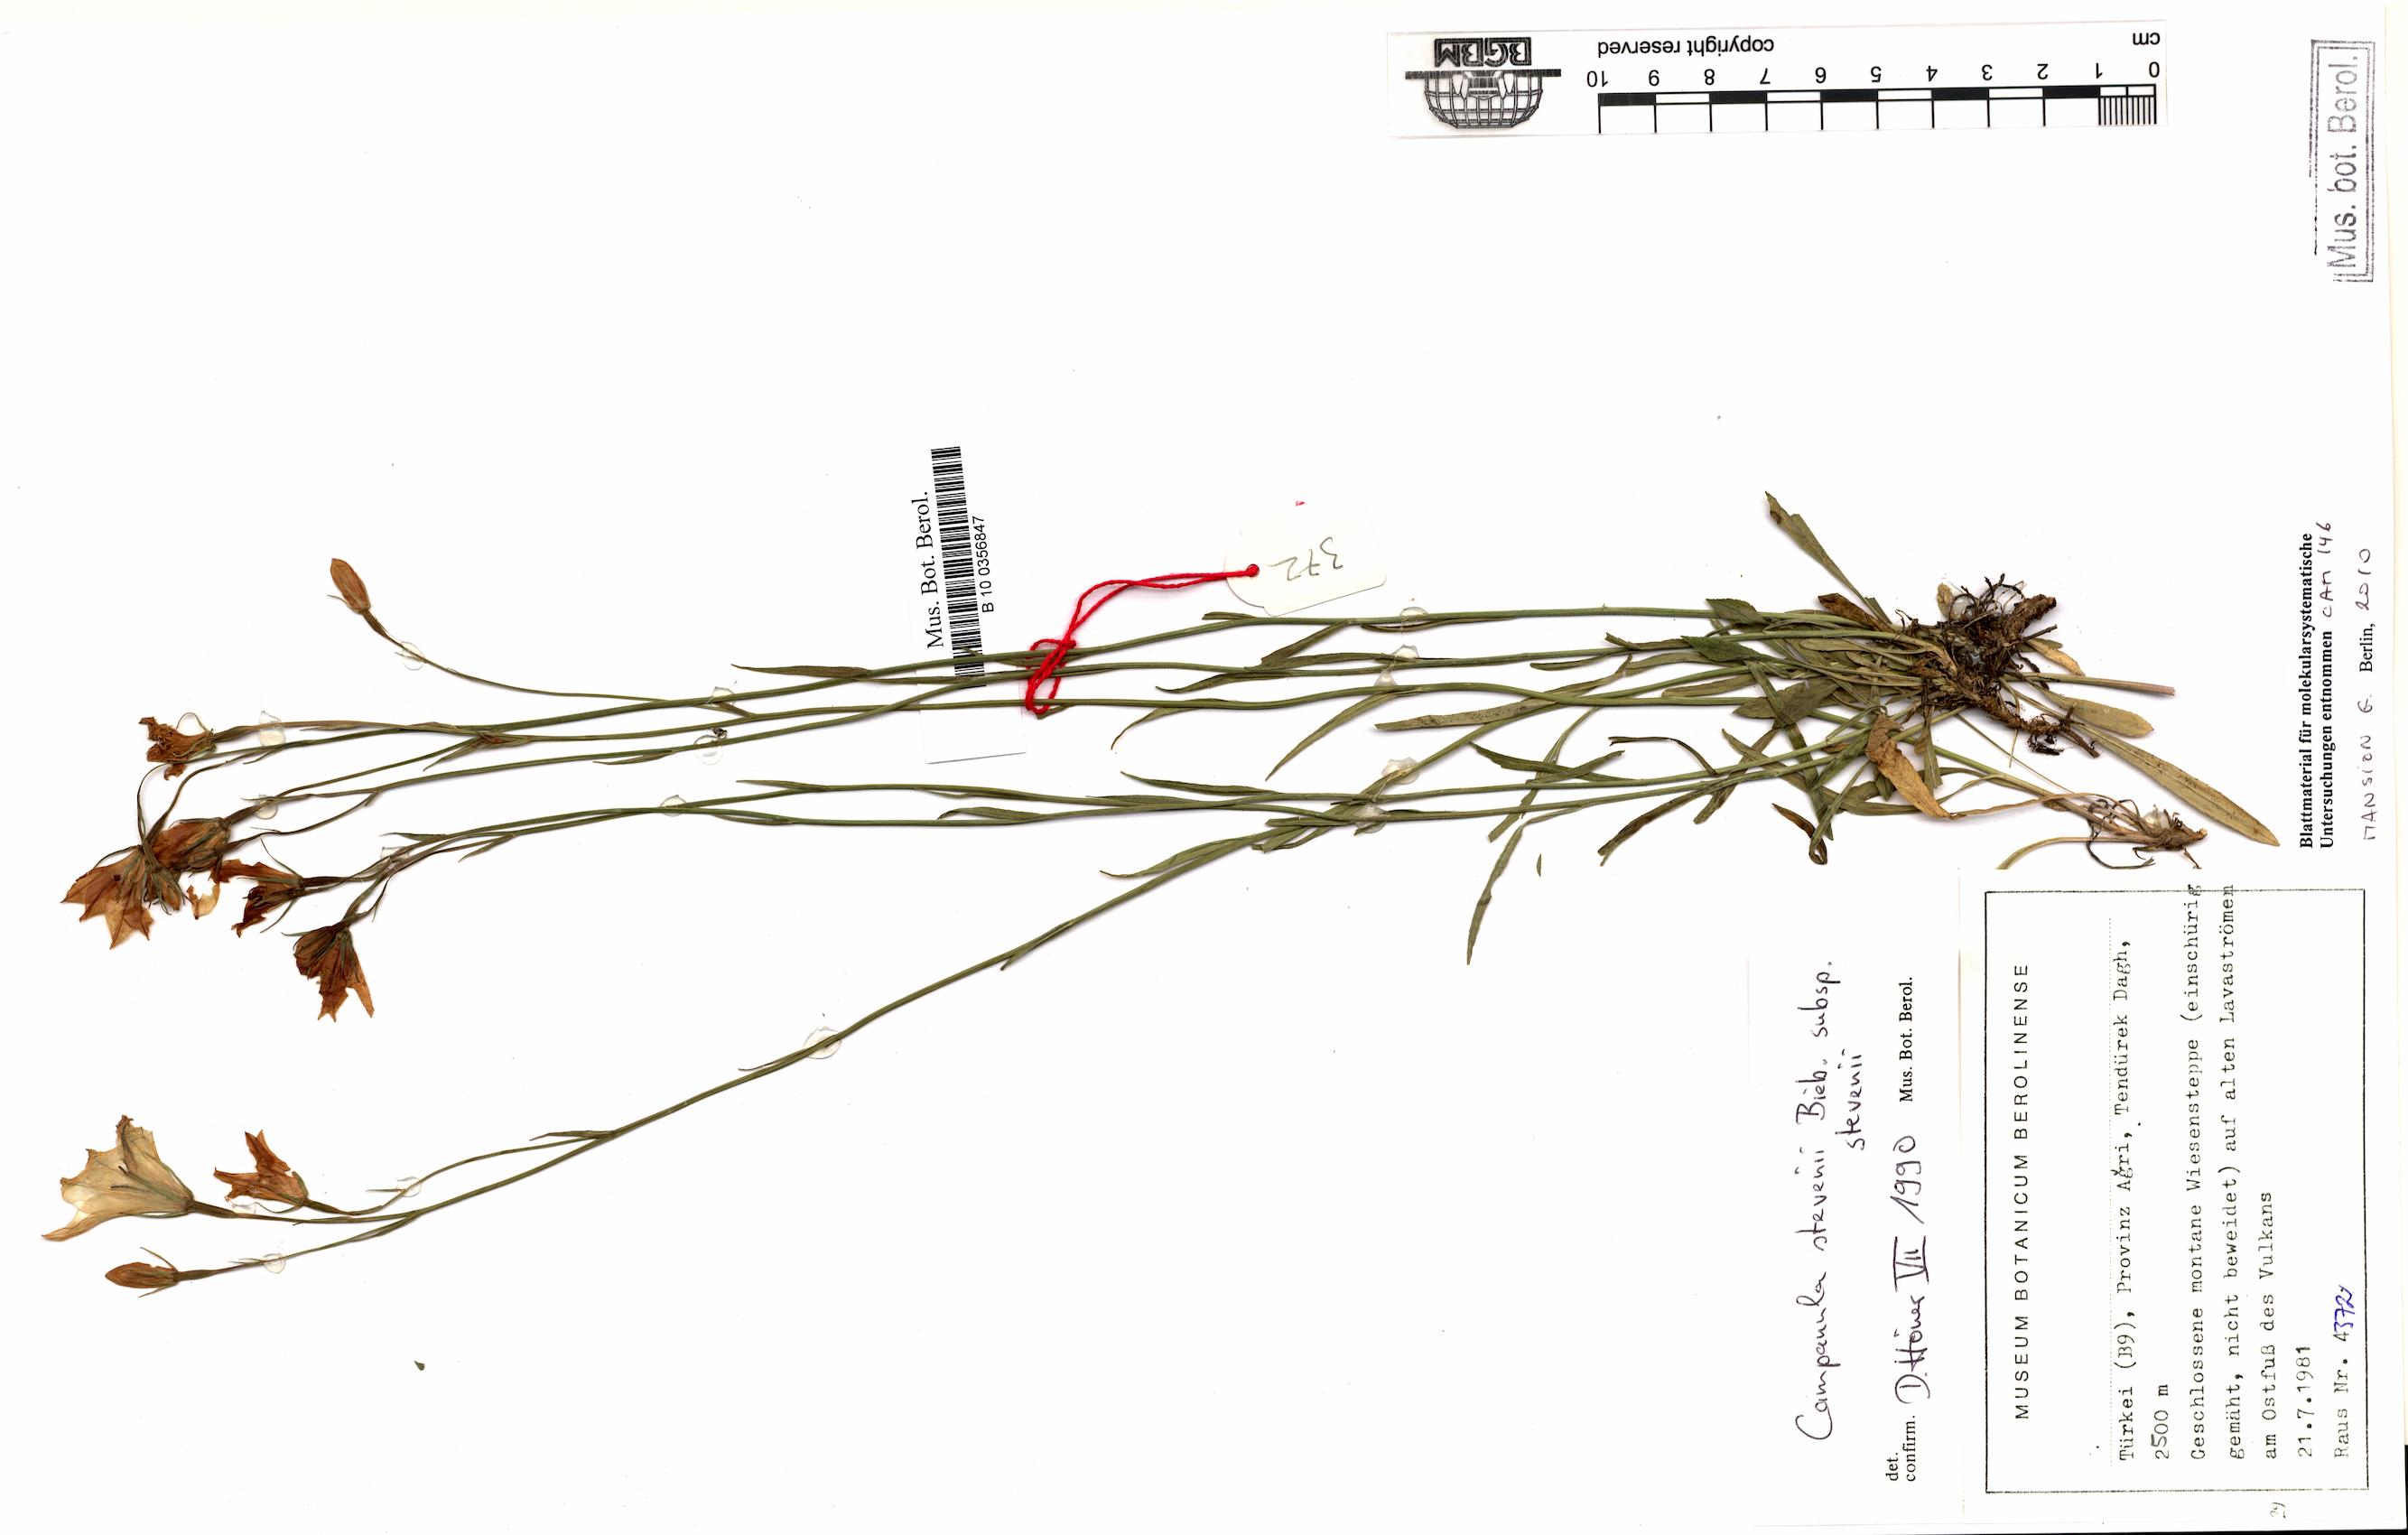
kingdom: Plantae
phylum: Tracheophyta
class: Magnoliopsida
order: Asterales
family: Campanulaceae
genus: Campanula
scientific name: Campanula stevenii
